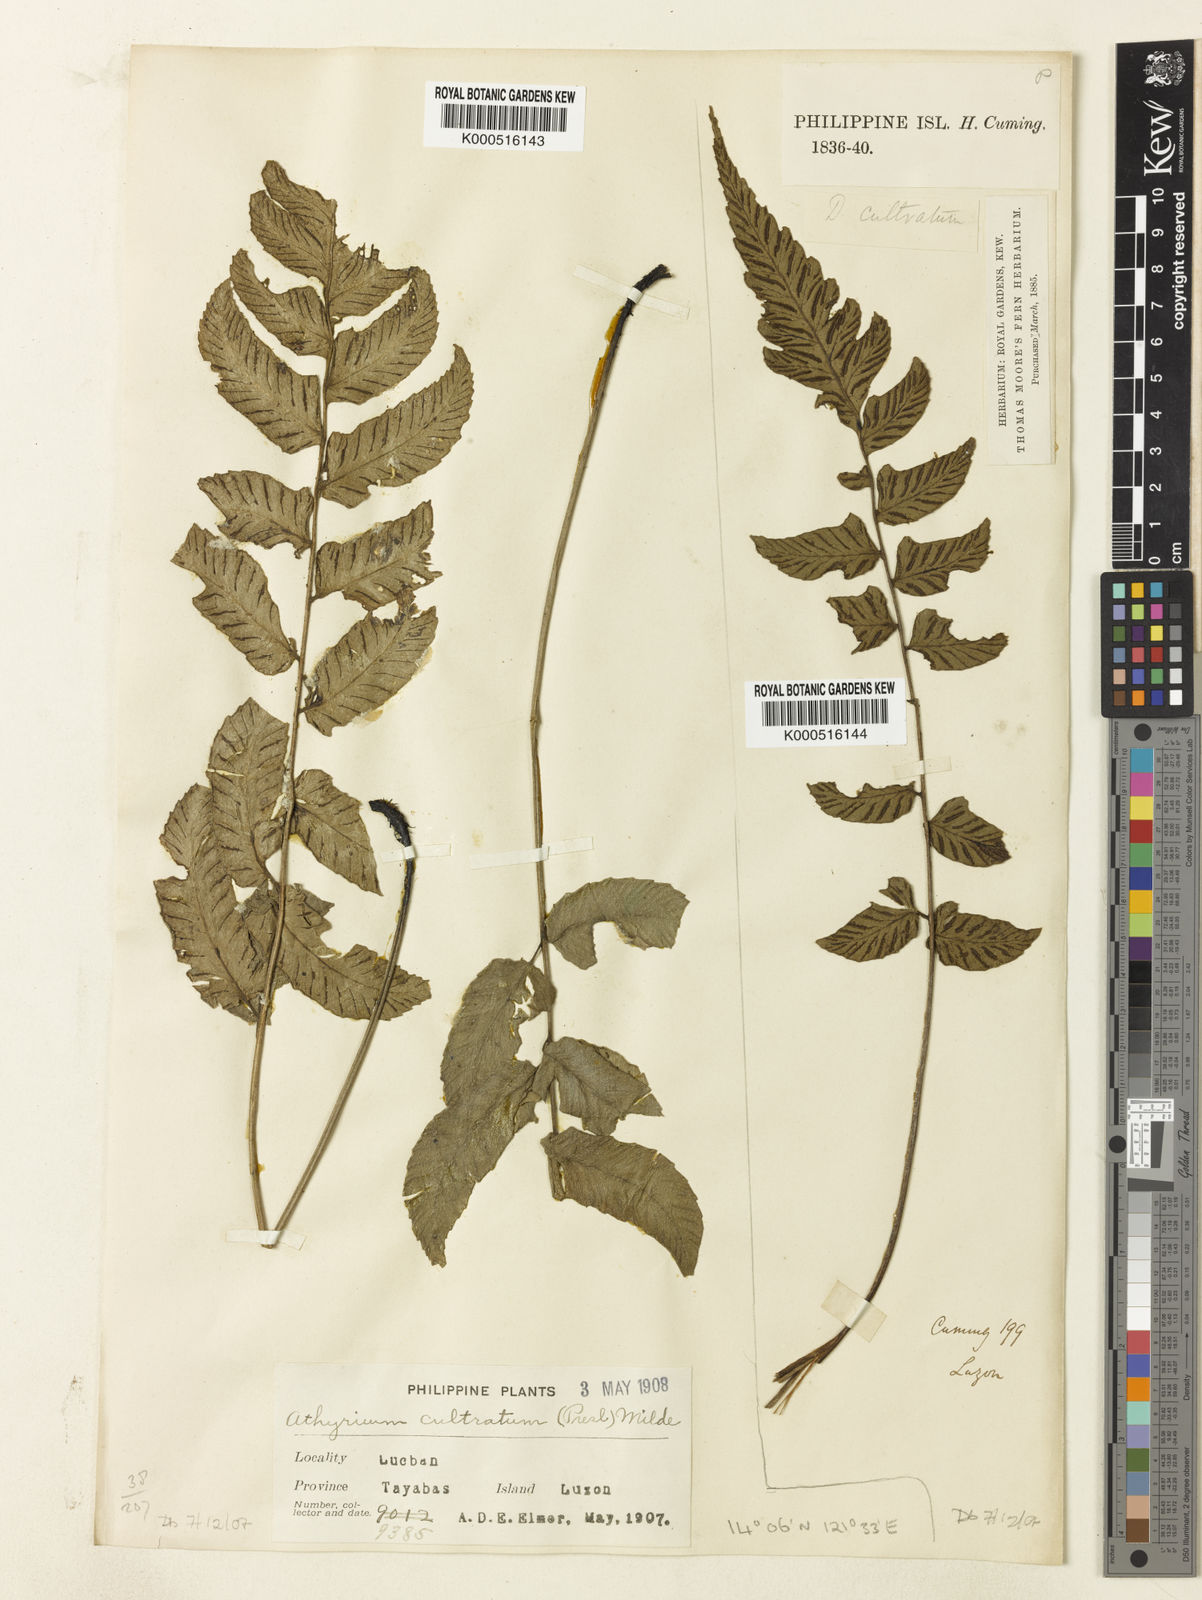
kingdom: Plantae
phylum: Tracheophyta
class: Polypodiopsida
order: Polypodiales
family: Athyriaceae
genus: Diplazium
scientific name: Diplazium cultratum
